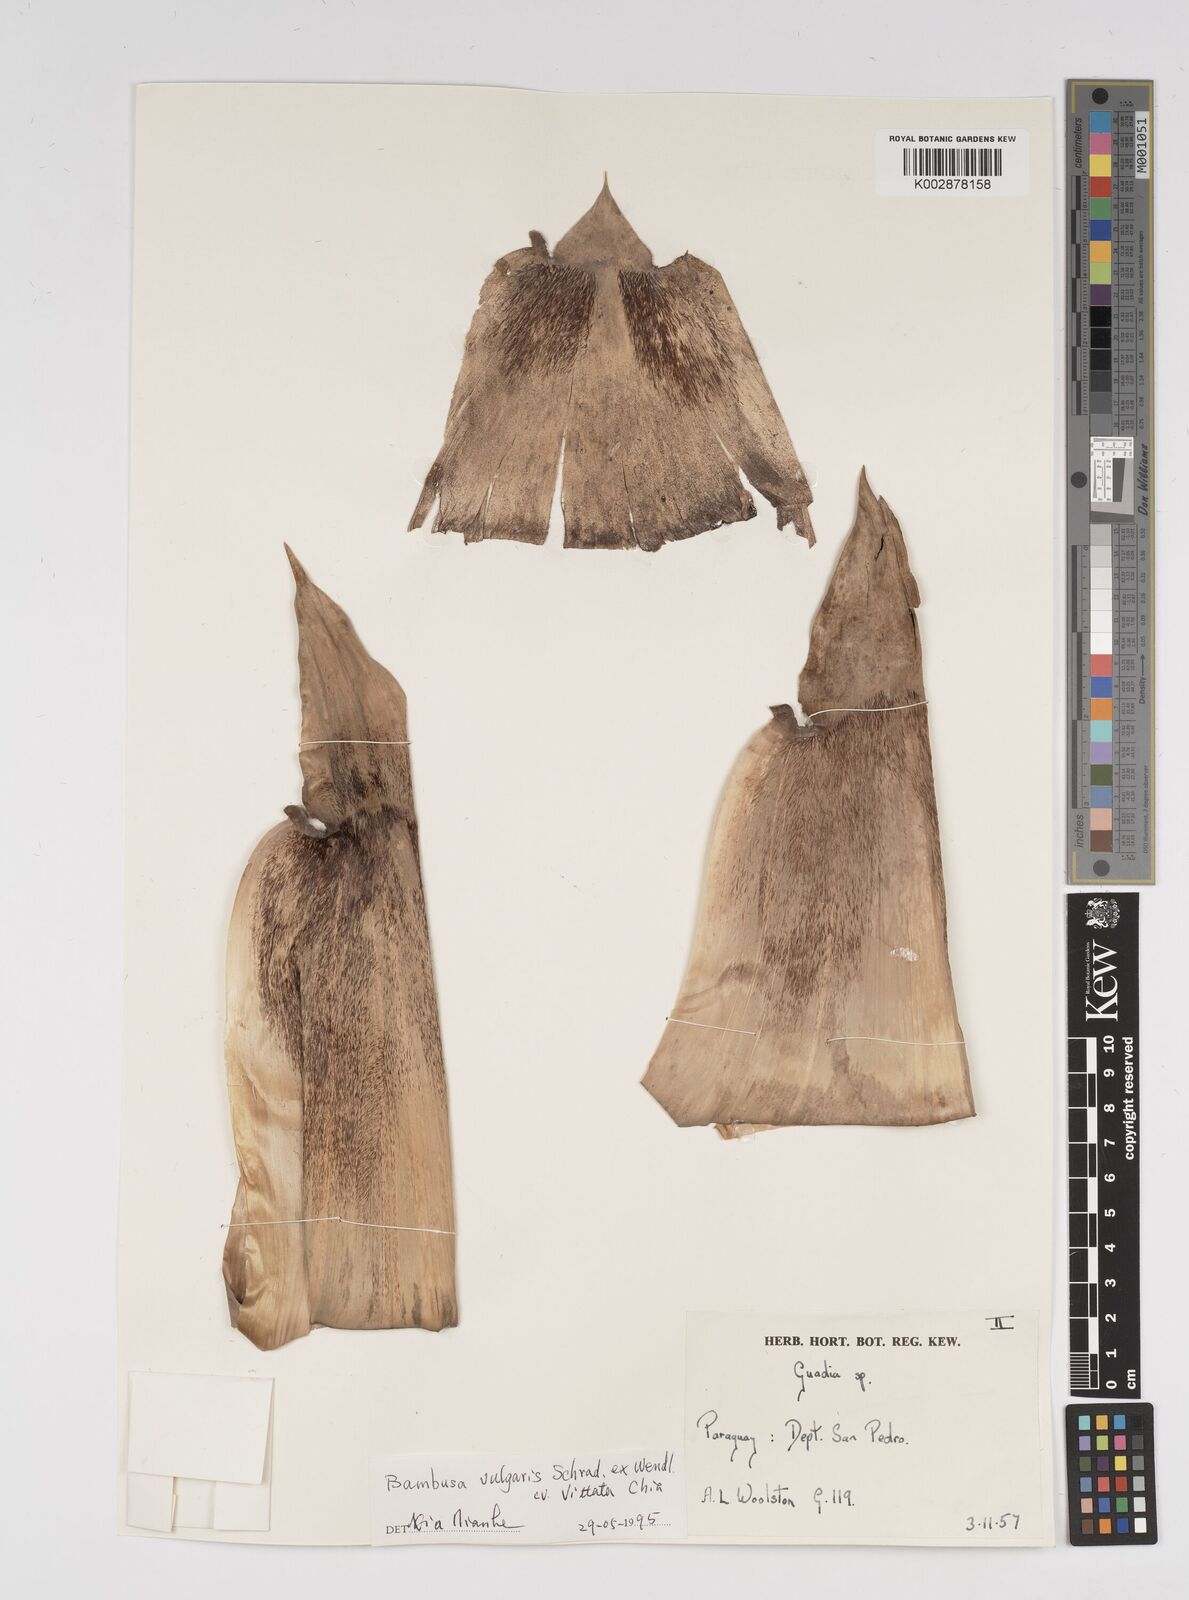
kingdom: Plantae
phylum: Tracheophyta
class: Liliopsida
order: Poales
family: Poaceae
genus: Bambusa
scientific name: Bambusa
